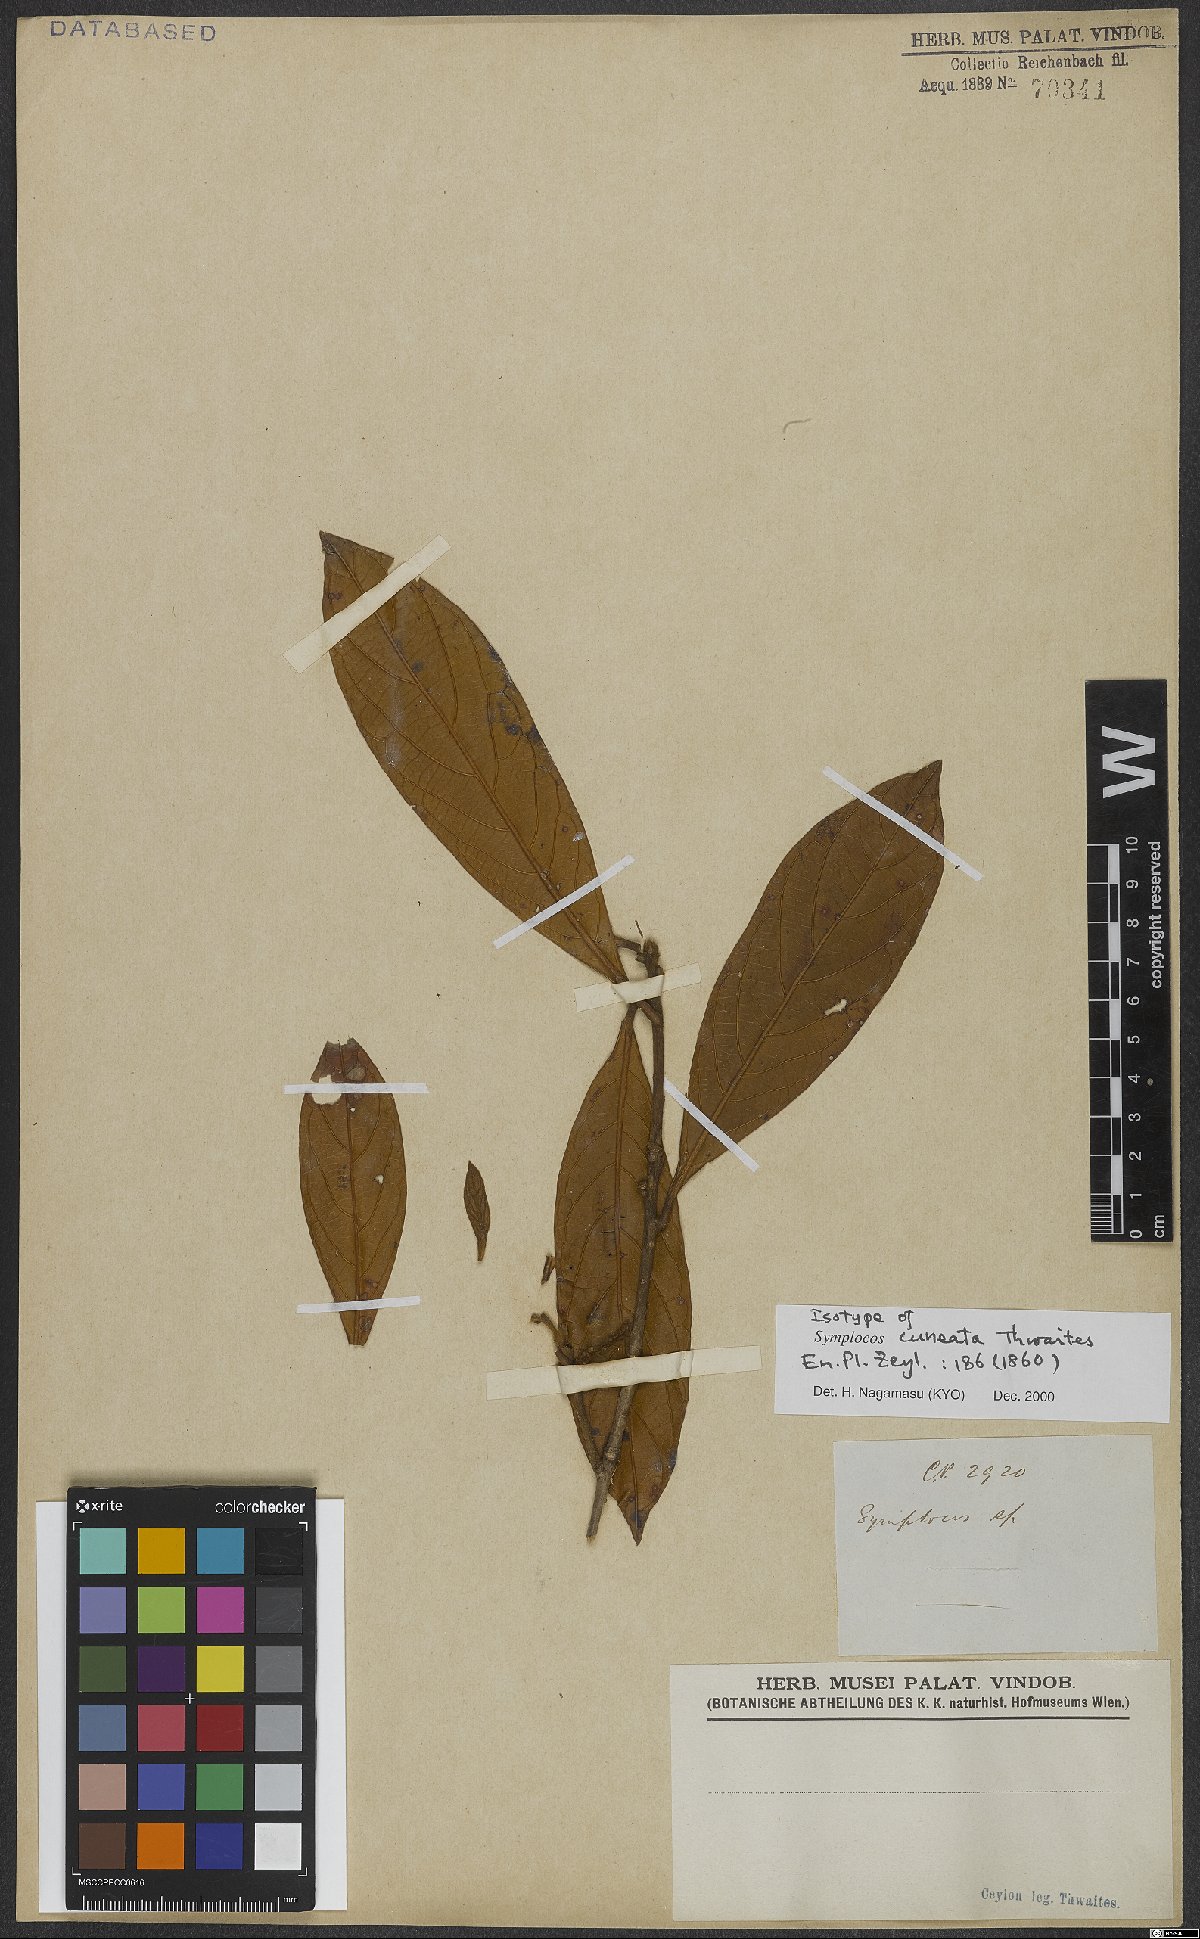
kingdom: Plantae
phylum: Tracheophyta
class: Magnoliopsida
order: Ericales
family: Symplocaceae
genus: Symplocos
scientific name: Symplocos cuneata
